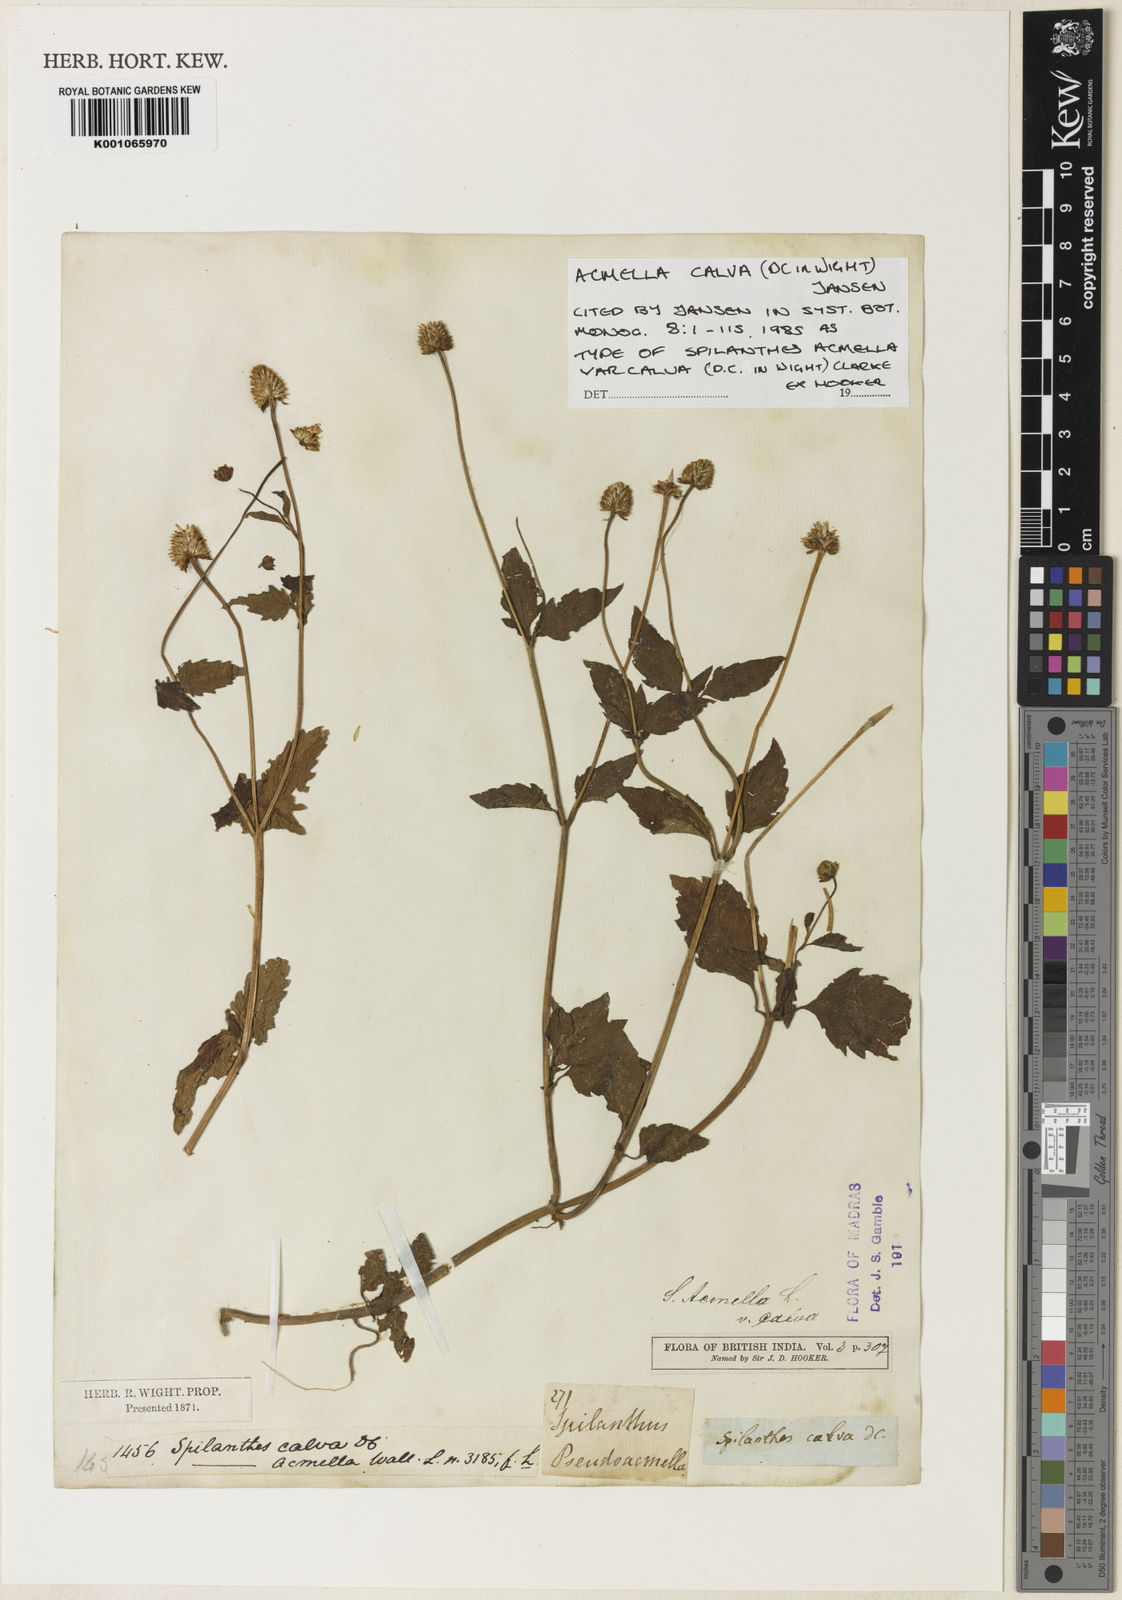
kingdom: Plantae
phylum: Tracheophyta
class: Magnoliopsida
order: Asterales
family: Asteraceae
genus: Acmella
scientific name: Acmella calva
